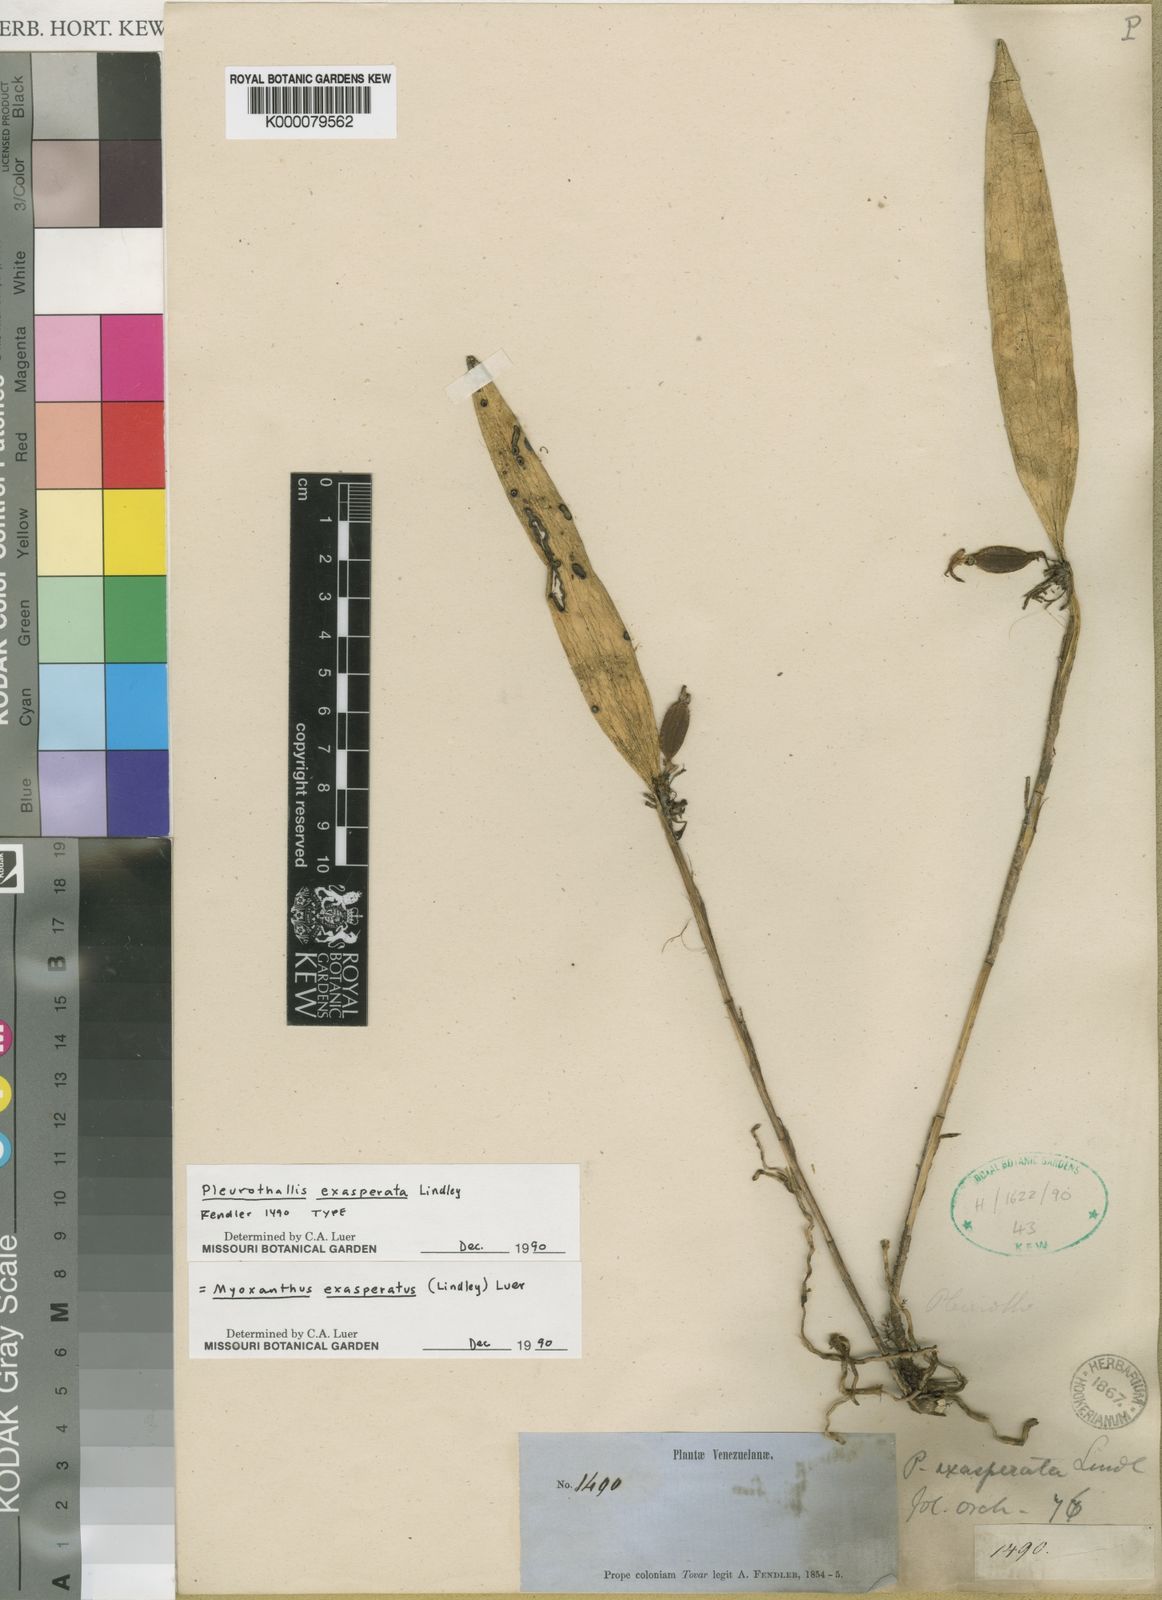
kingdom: Plantae
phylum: Tracheophyta
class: Liliopsida
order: Asparagales
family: Orchidaceae
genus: Myoxanthus
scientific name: Myoxanthus exasperatus
